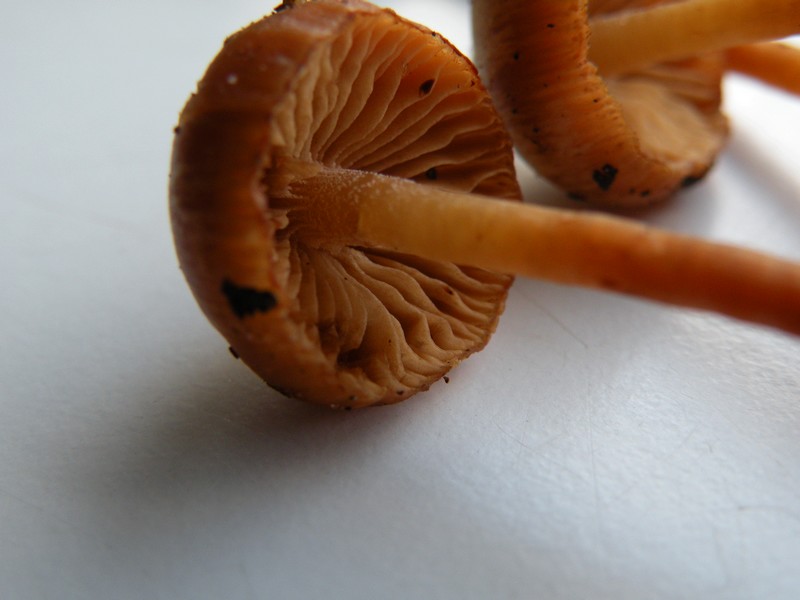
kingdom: Fungi
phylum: Basidiomycota
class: Agaricomycetes
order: Agaricales
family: Hymenogastraceae
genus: Galerina
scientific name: Galerina sideroides
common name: træflis-hjelmhat
